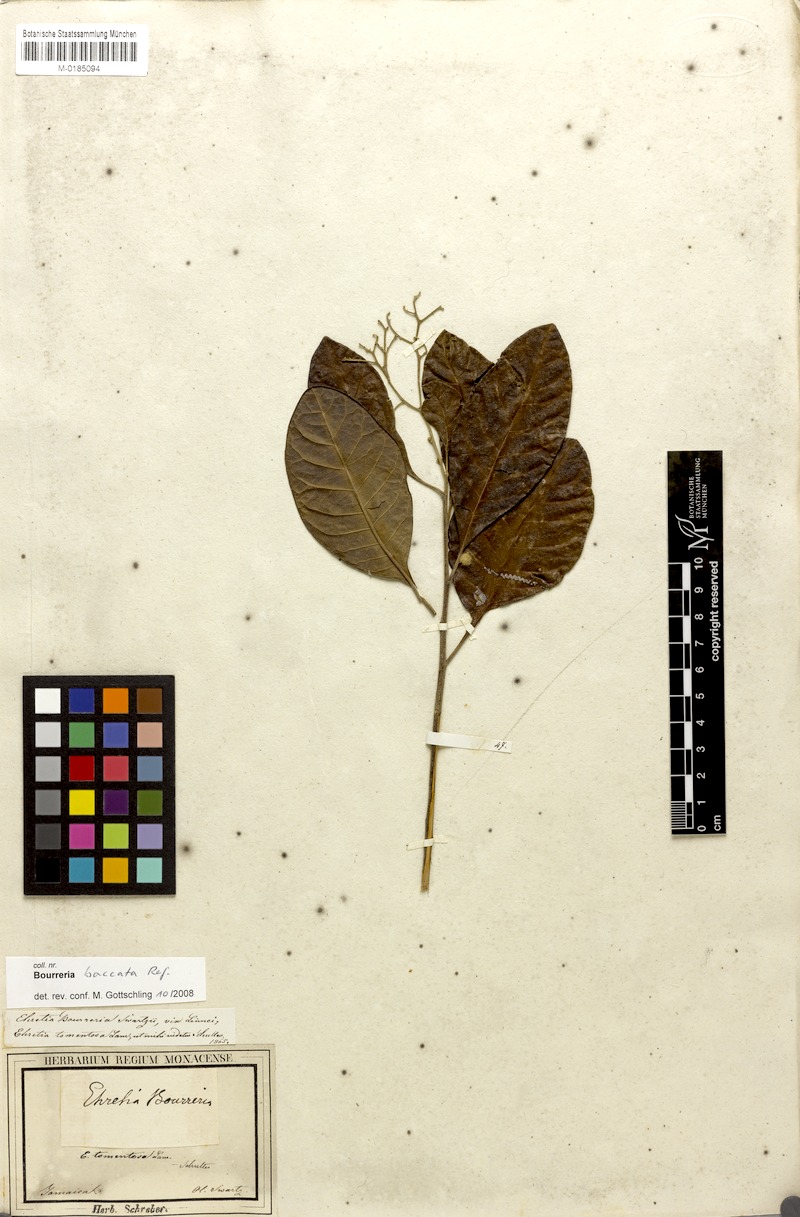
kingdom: Plantae
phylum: Tracheophyta
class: Magnoliopsida
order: Boraginales
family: Ehretiaceae
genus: Bourreria
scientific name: Bourreria succulenta
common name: Cherry
